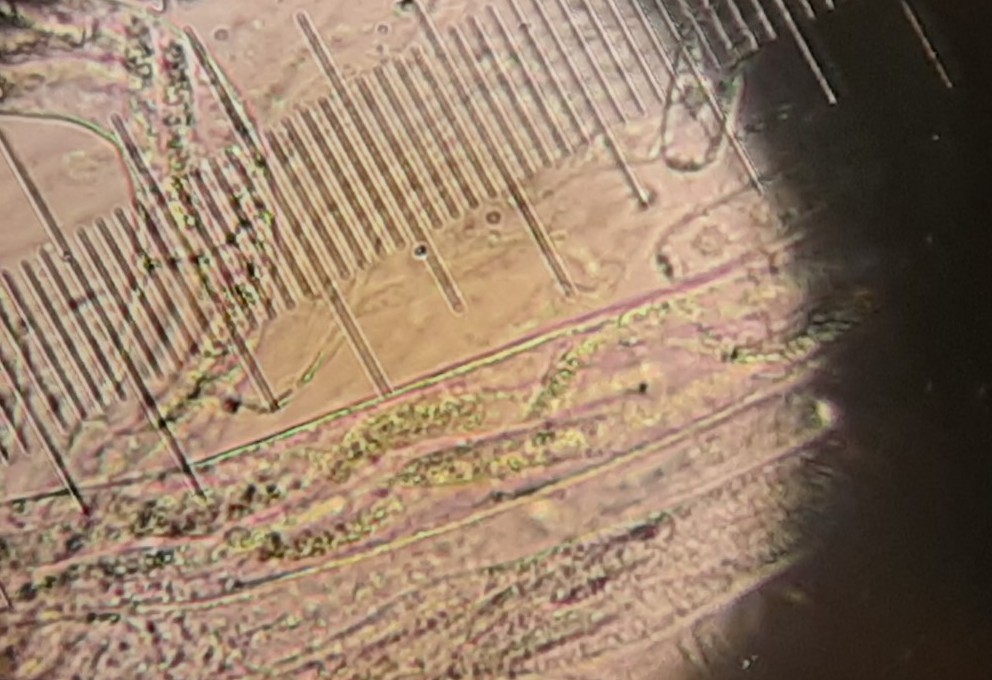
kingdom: Fungi
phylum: Ascomycota
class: Sordariomycetes
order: Sordariales
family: Lasiosphaeriaceae
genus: Lasiosphaeria
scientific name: Lasiosphaeria ovina
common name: fåre-kernesvamp
